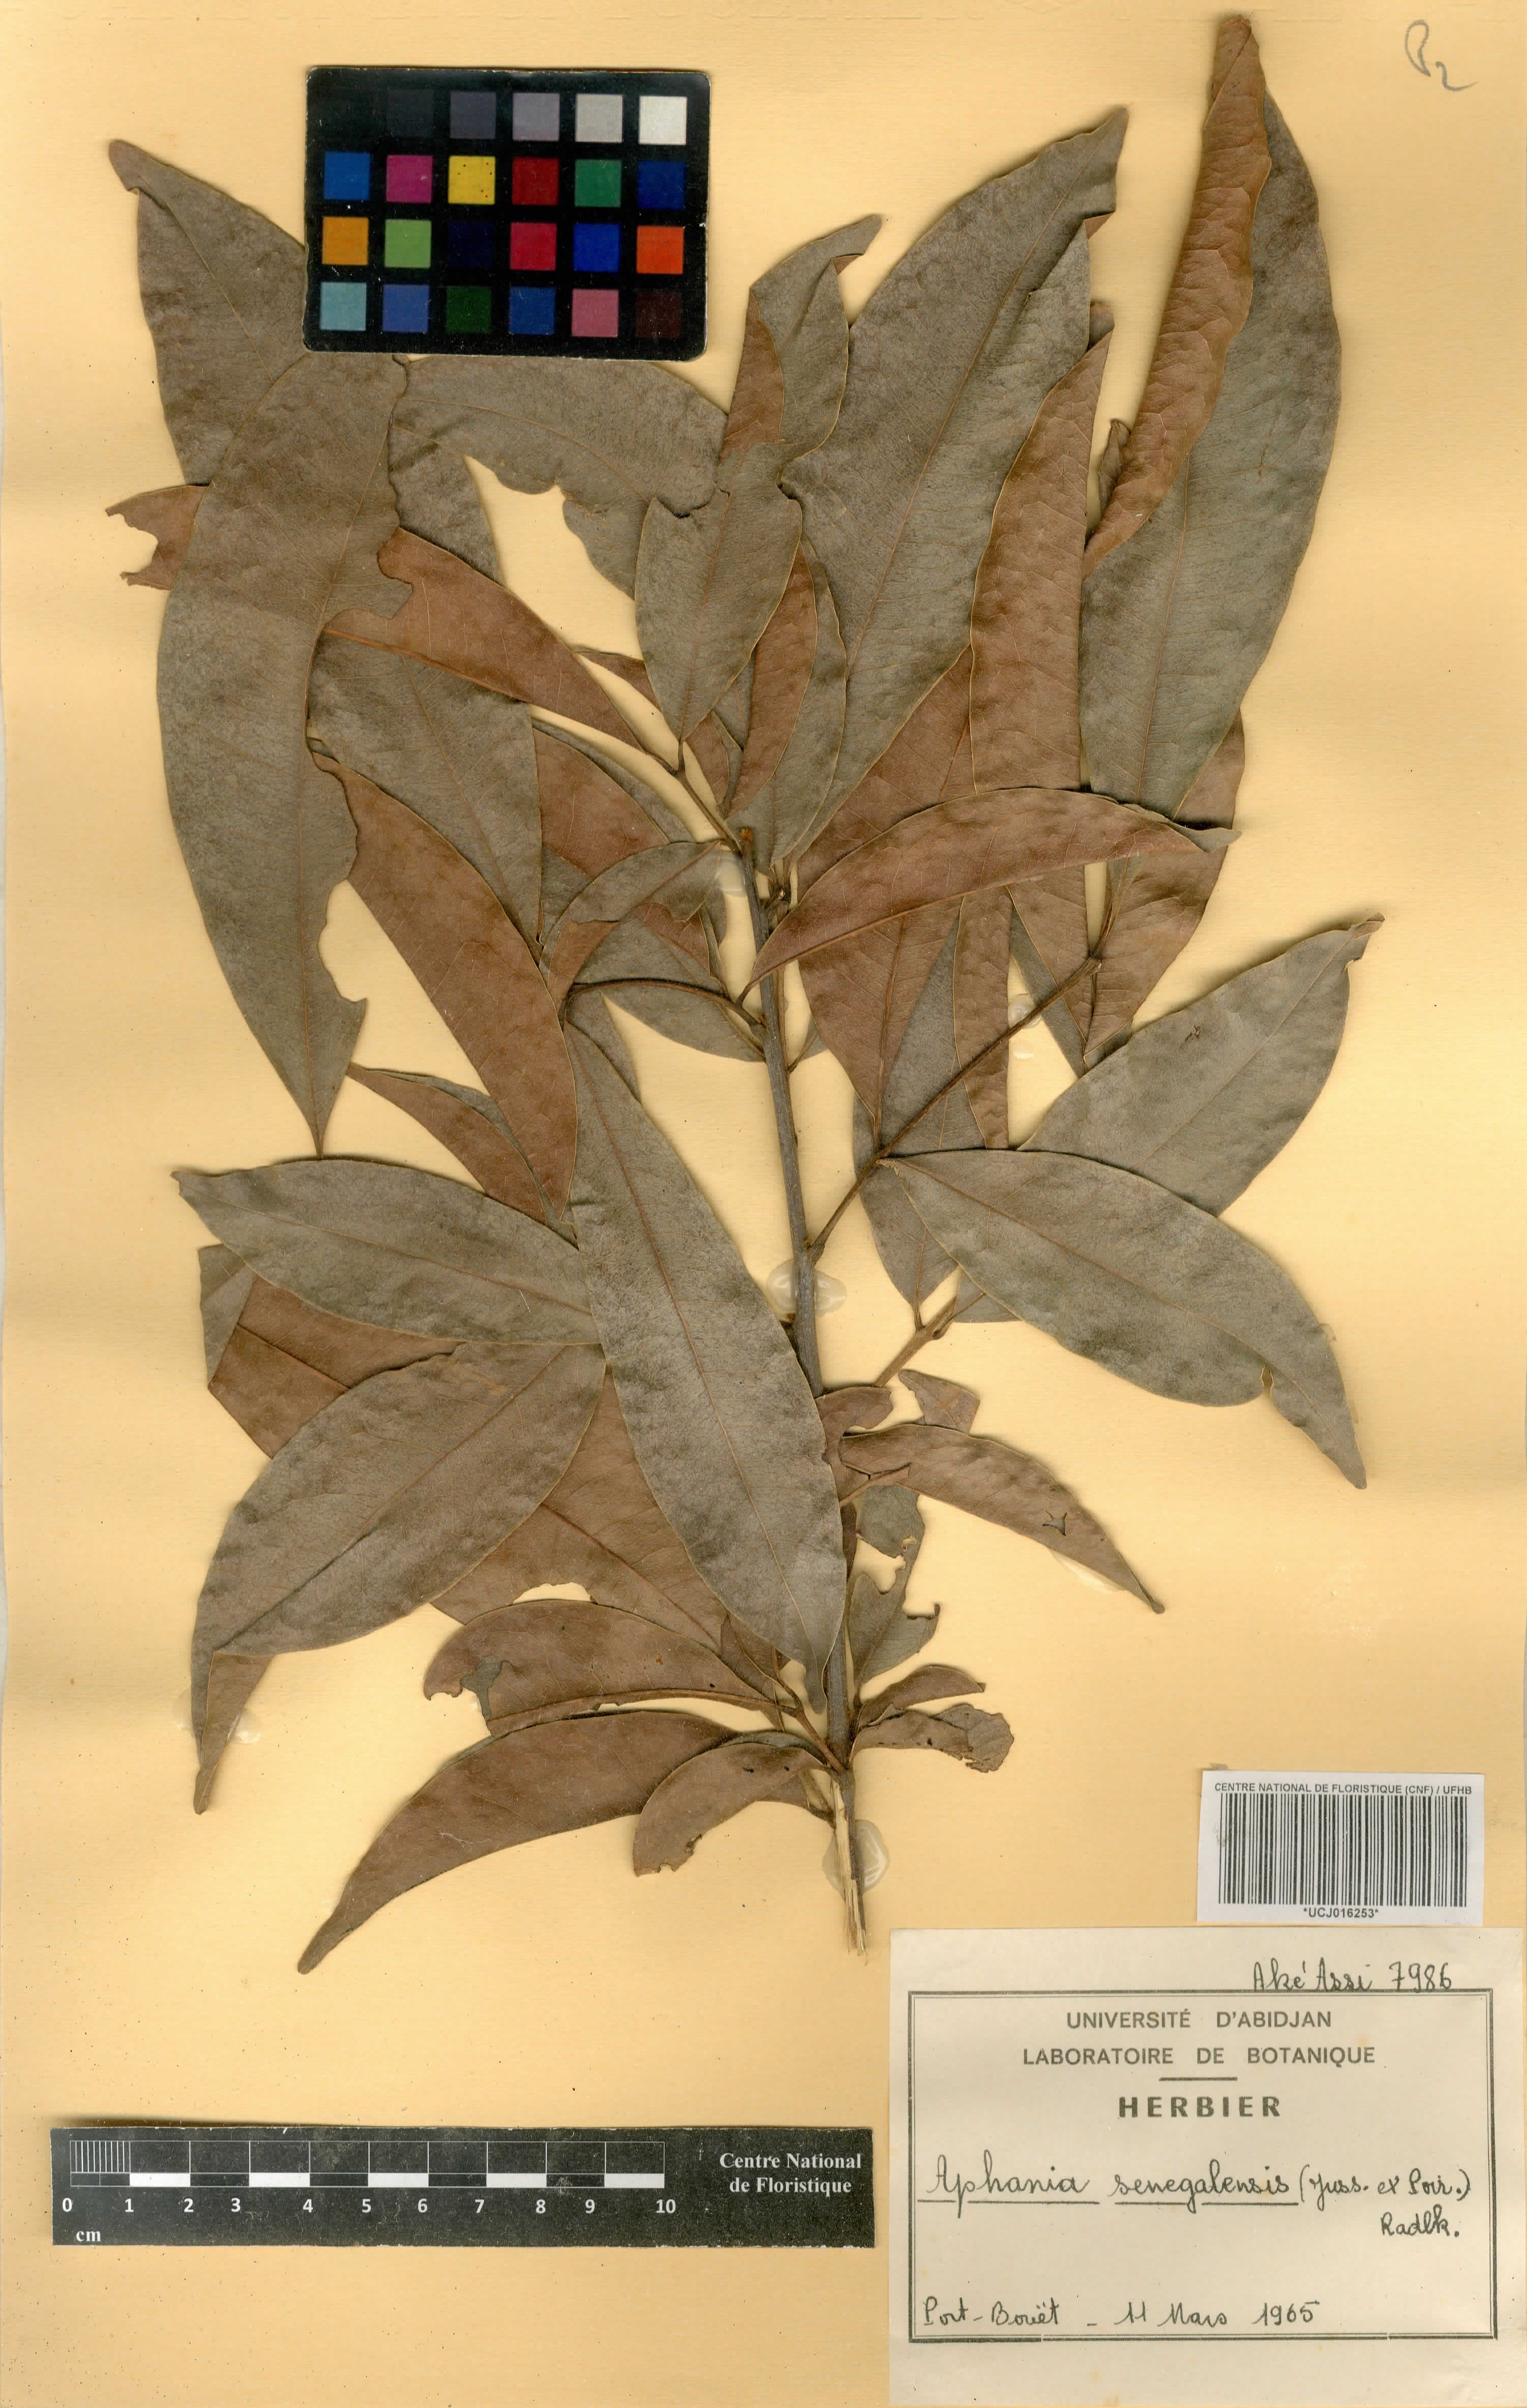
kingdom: Plantae
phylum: Tracheophyta
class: Magnoliopsida
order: Sapindales
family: Sapindaceae
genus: Lepisanthes
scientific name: Lepisanthes senegalensis
